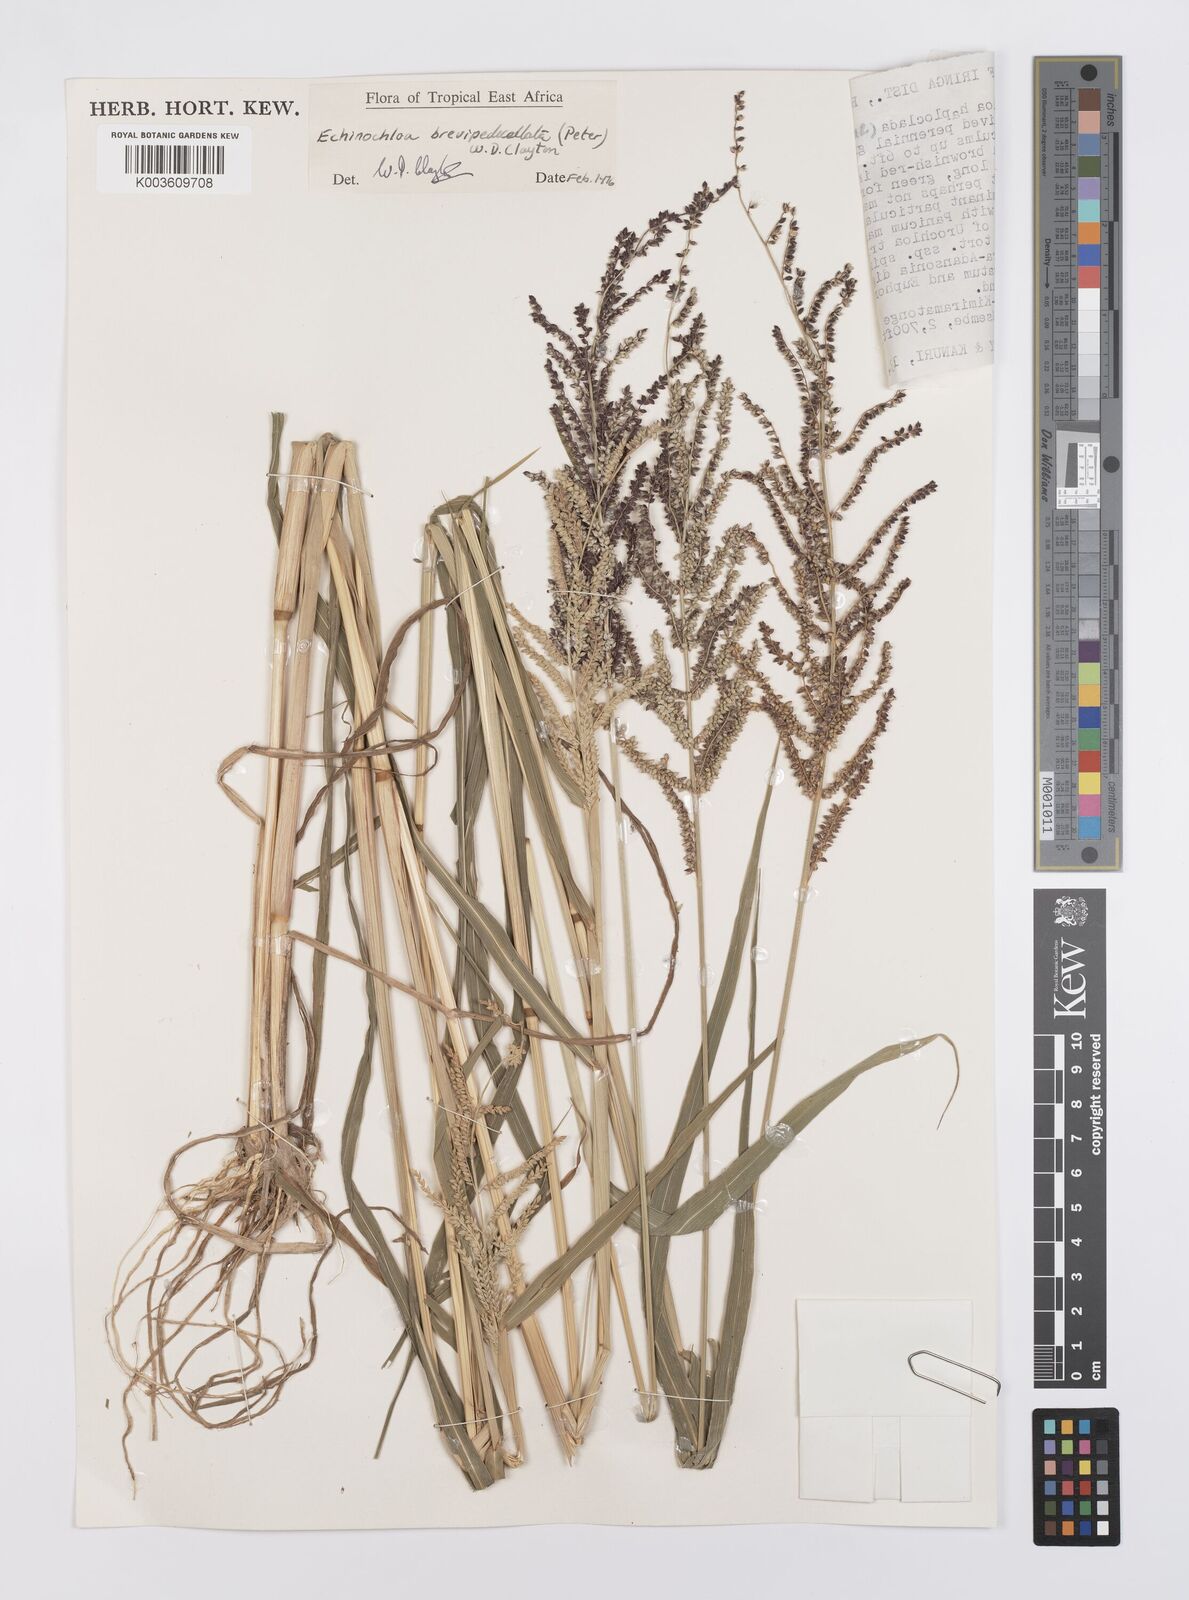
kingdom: Plantae
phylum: Tracheophyta
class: Liliopsida
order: Poales
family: Poaceae
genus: Echinochloa
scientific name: Echinochloa brevipedicellata
